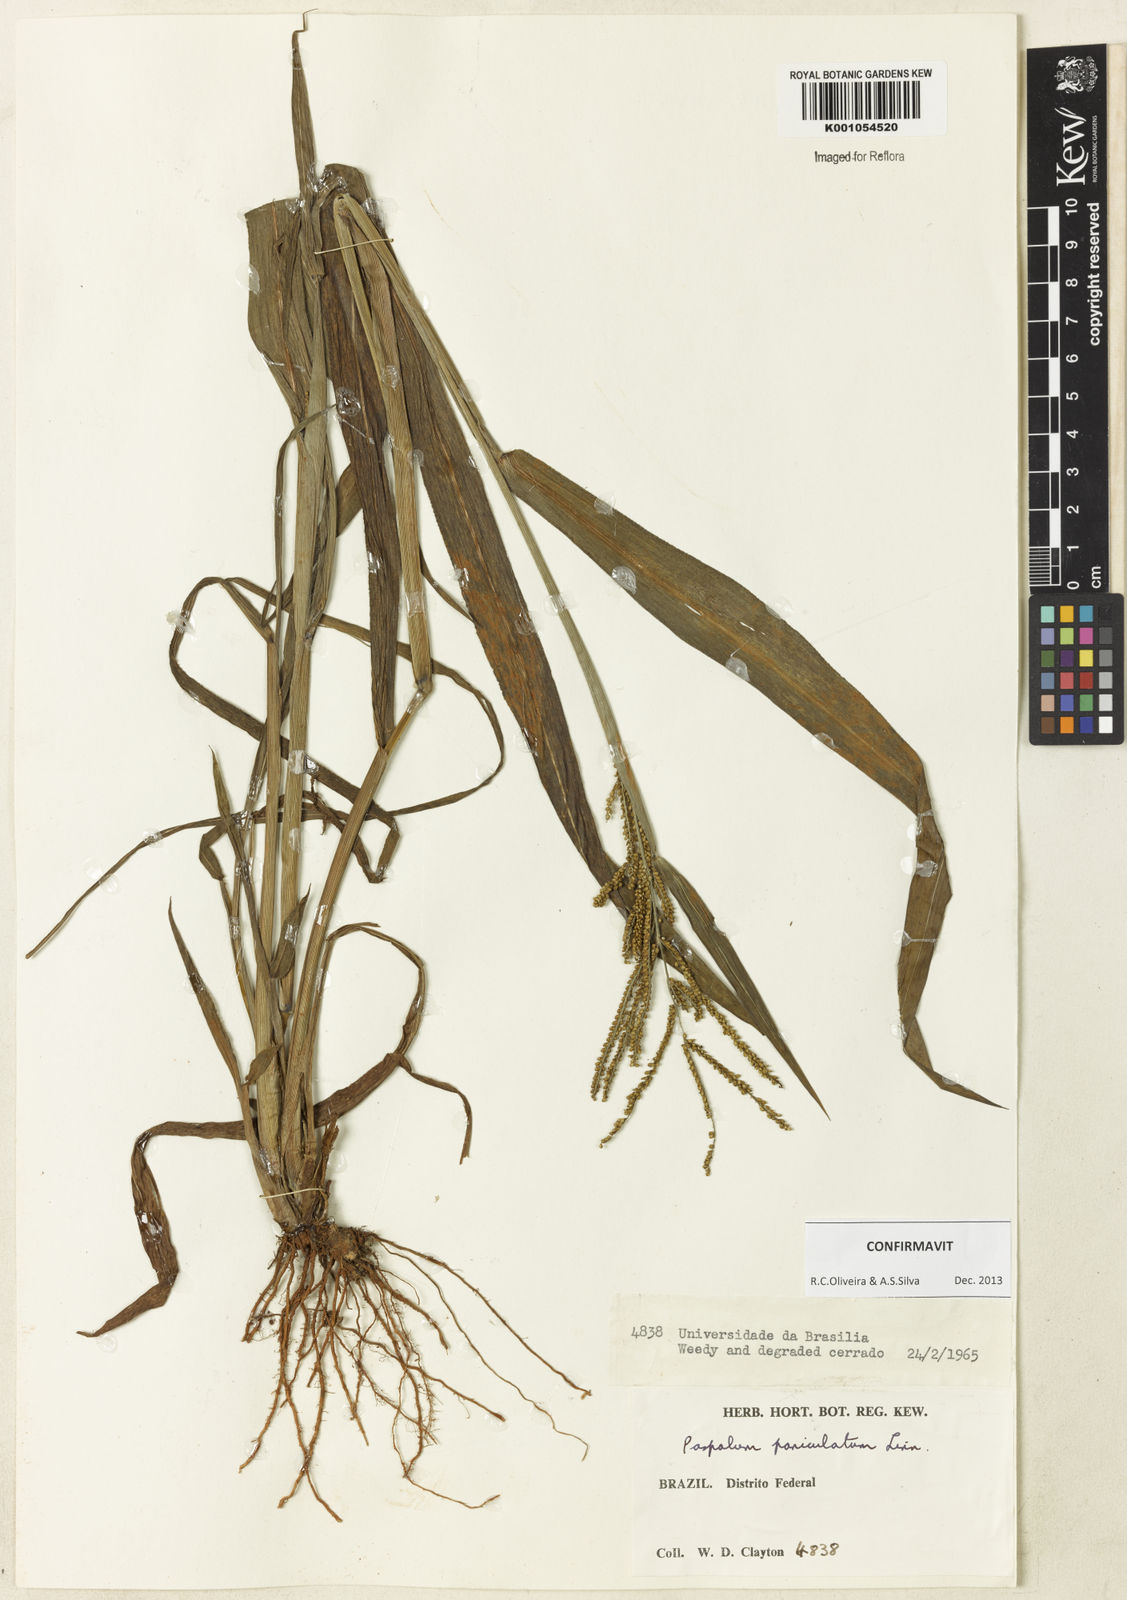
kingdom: Plantae
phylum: Tracheophyta
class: Liliopsida
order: Poales
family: Poaceae
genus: Paspalum
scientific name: Paspalum paniculatum
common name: Arrocillo
